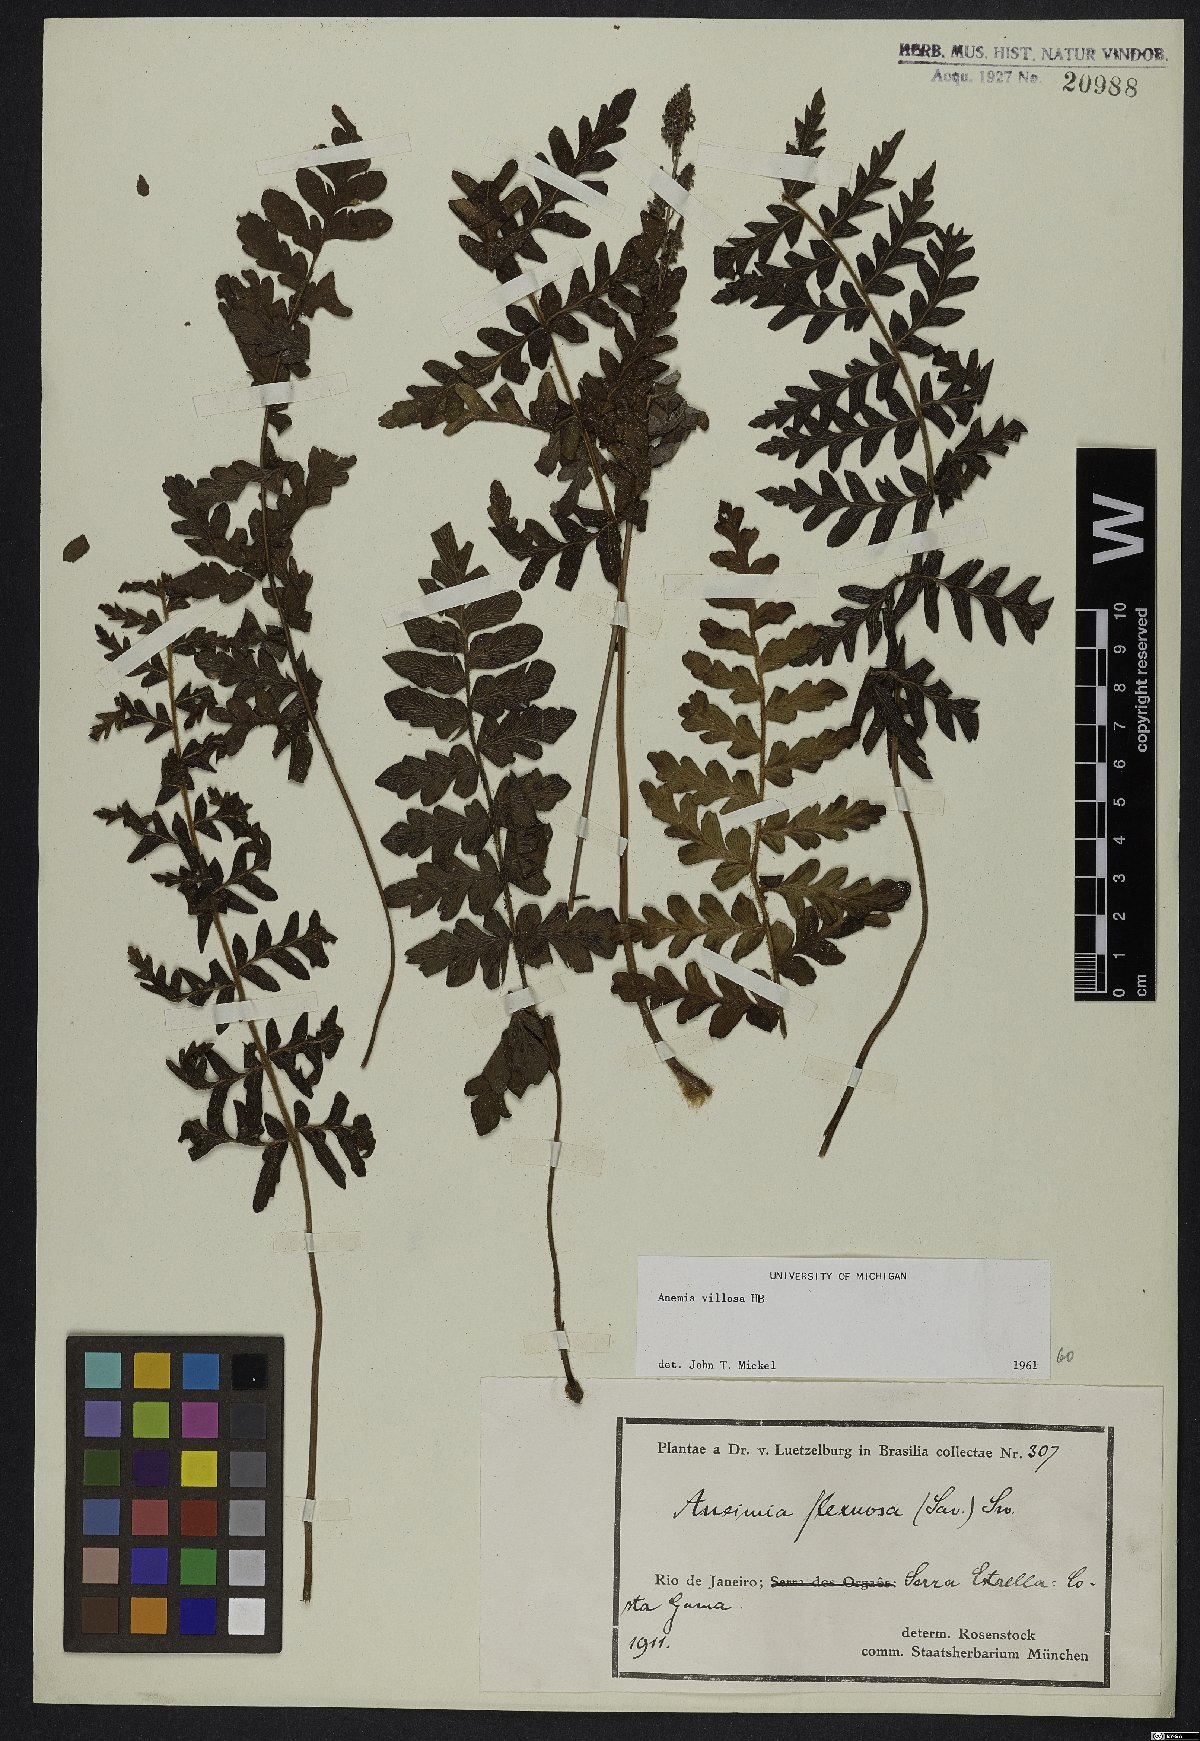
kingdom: Plantae
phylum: Tracheophyta
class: Polypodiopsida
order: Schizaeales
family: Anemiaceae
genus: Anemia
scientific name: Anemia villosa
